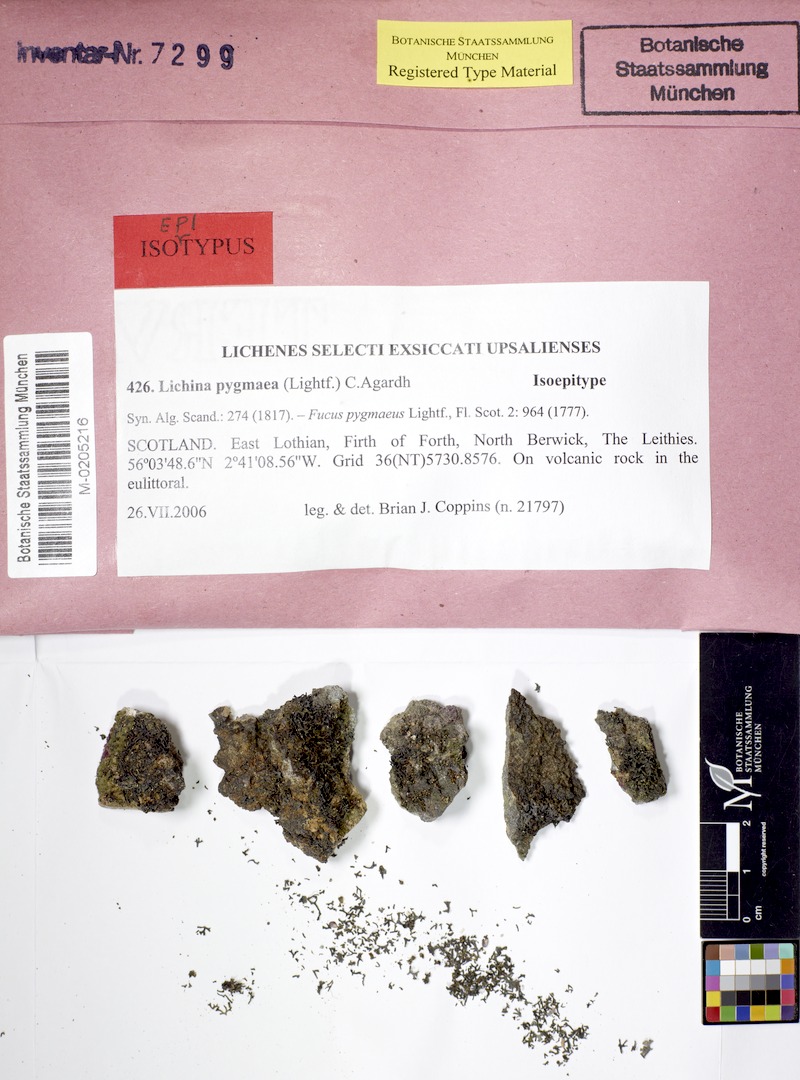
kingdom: Fungi
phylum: Ascomycota
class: Lichinomycetes
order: Lichinales
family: Lichinaceae
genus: Lichina
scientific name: Lichina pygmaea
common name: Black lichen
